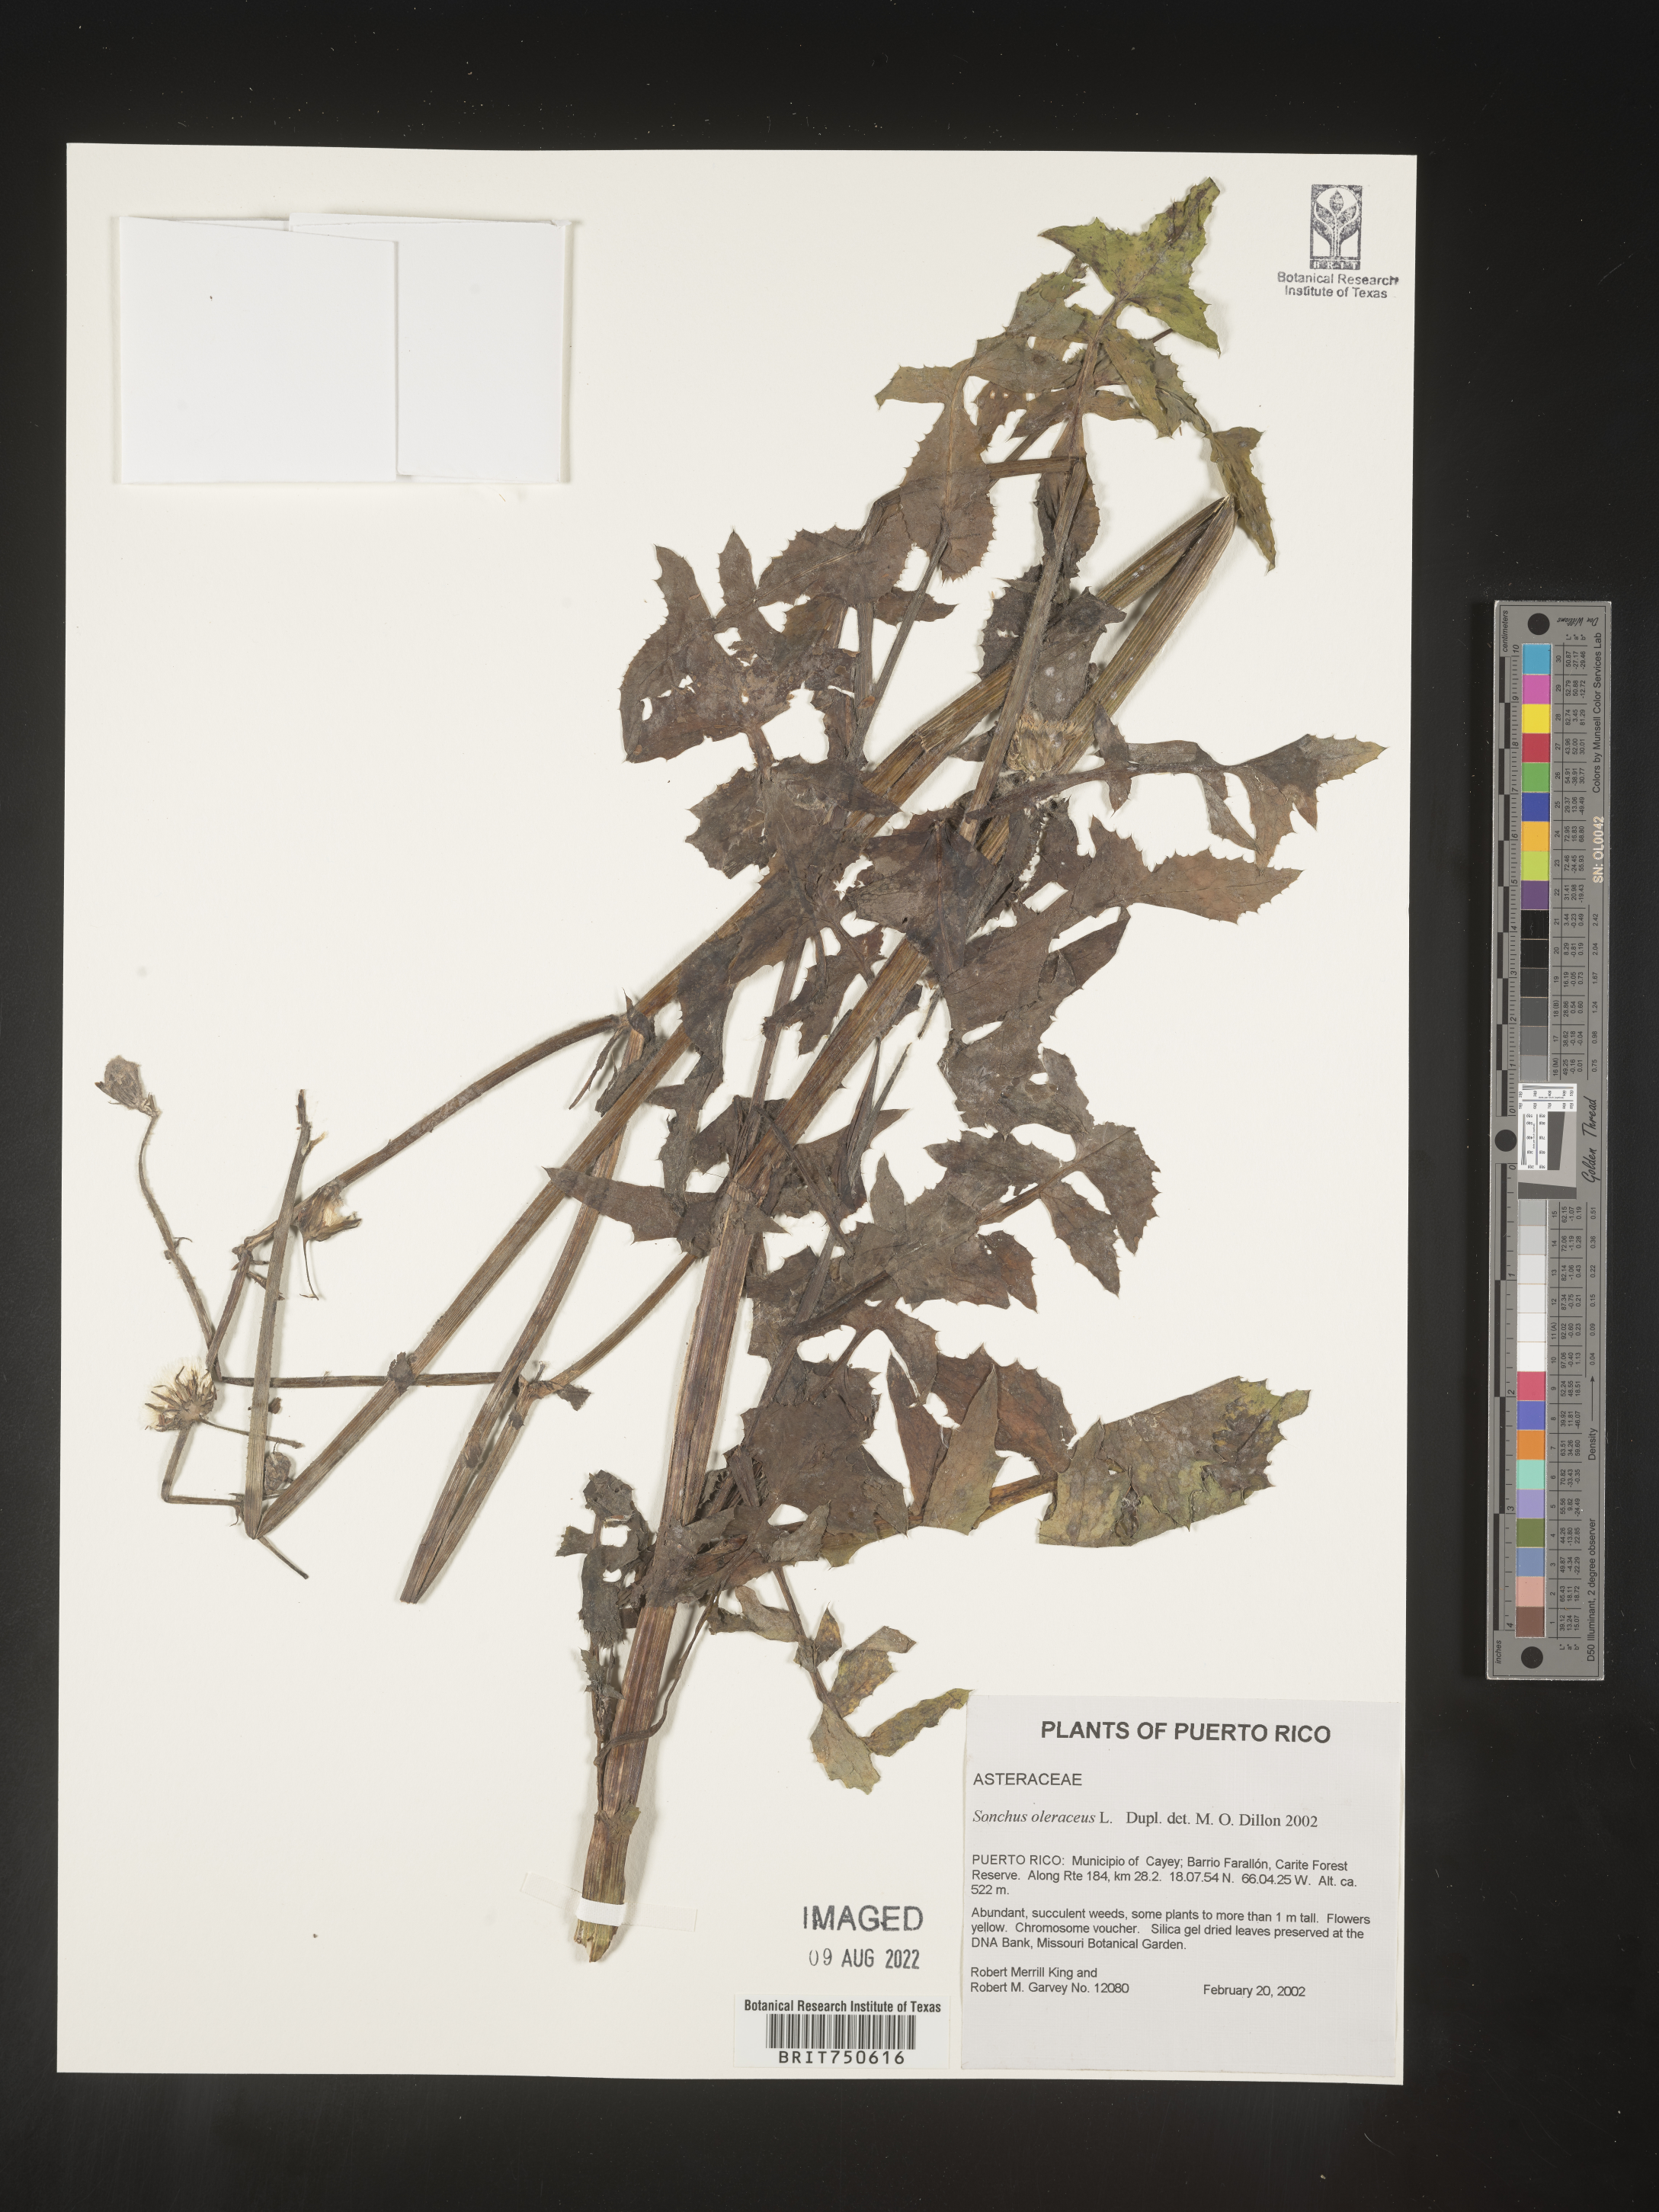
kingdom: Plantae
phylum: Tracheophyta
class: Magnoliopsida
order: Asterales
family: Asteraceae
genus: Sonchus
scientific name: Sonchus
